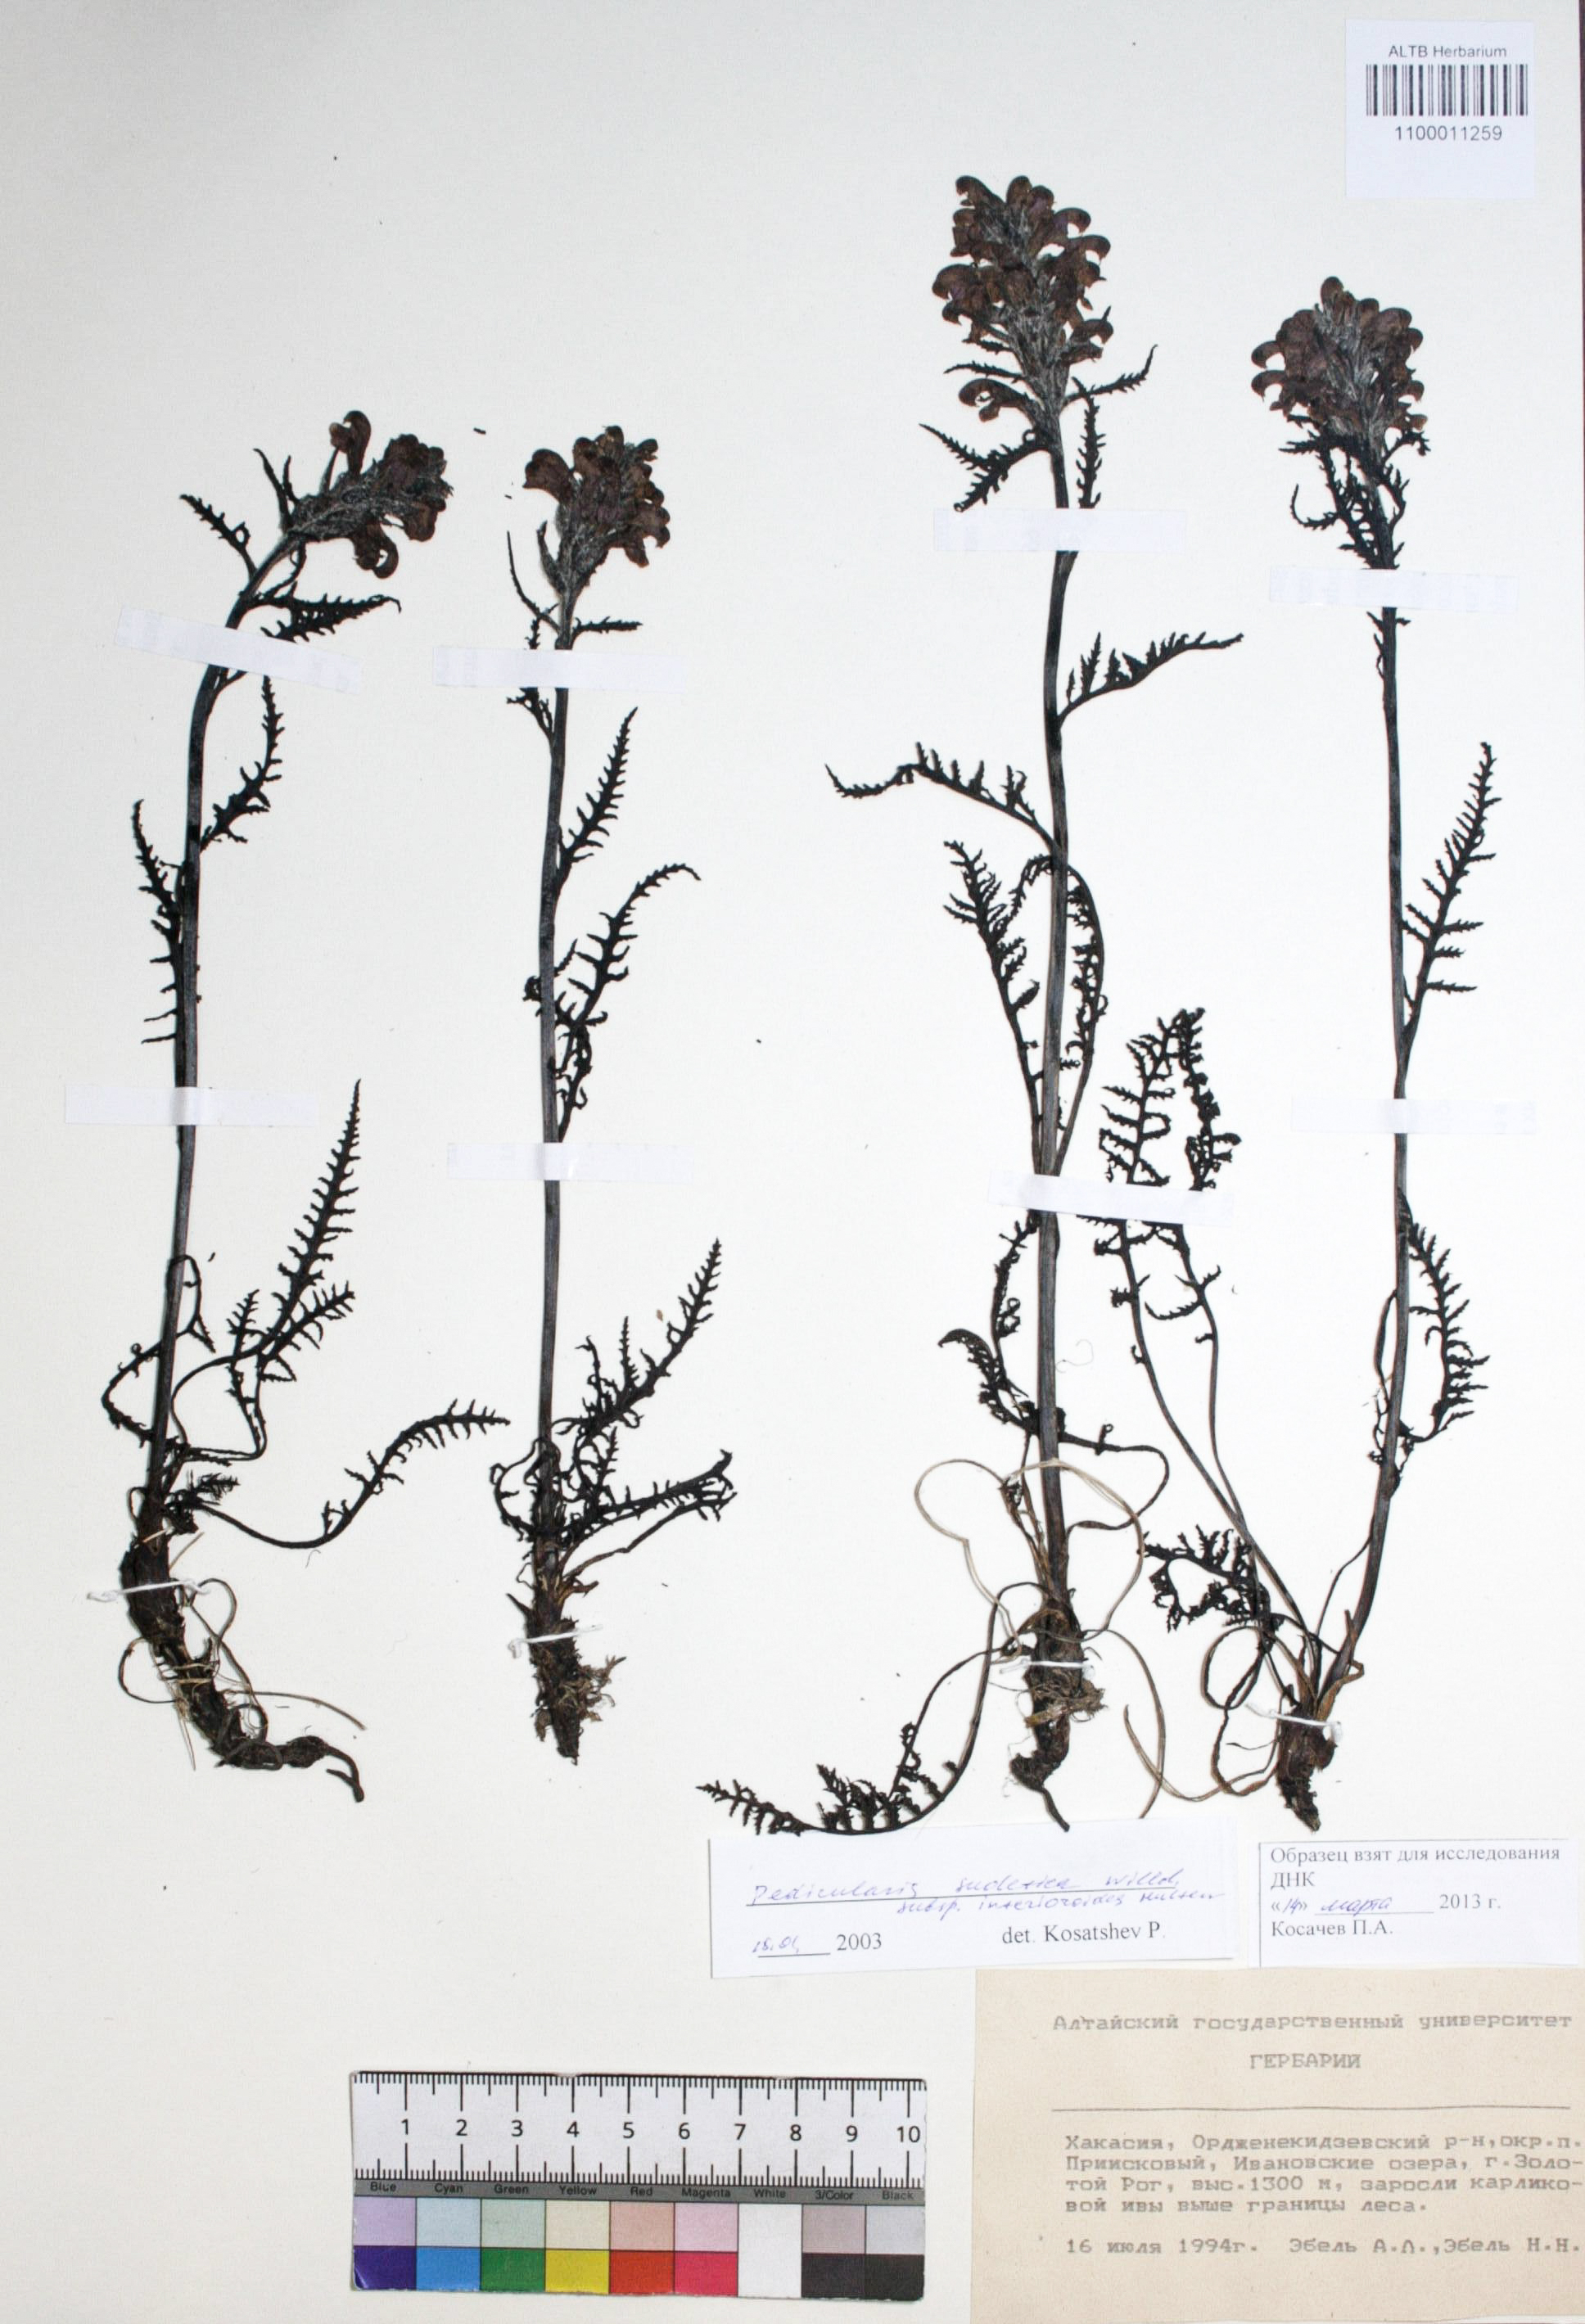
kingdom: Plantae
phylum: Tracheophyta
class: Magnoliopsida
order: Lamiales
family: Orobanchaceae
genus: Pedicularis
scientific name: Pedicularis sudetica
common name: Sudeten lousewort
